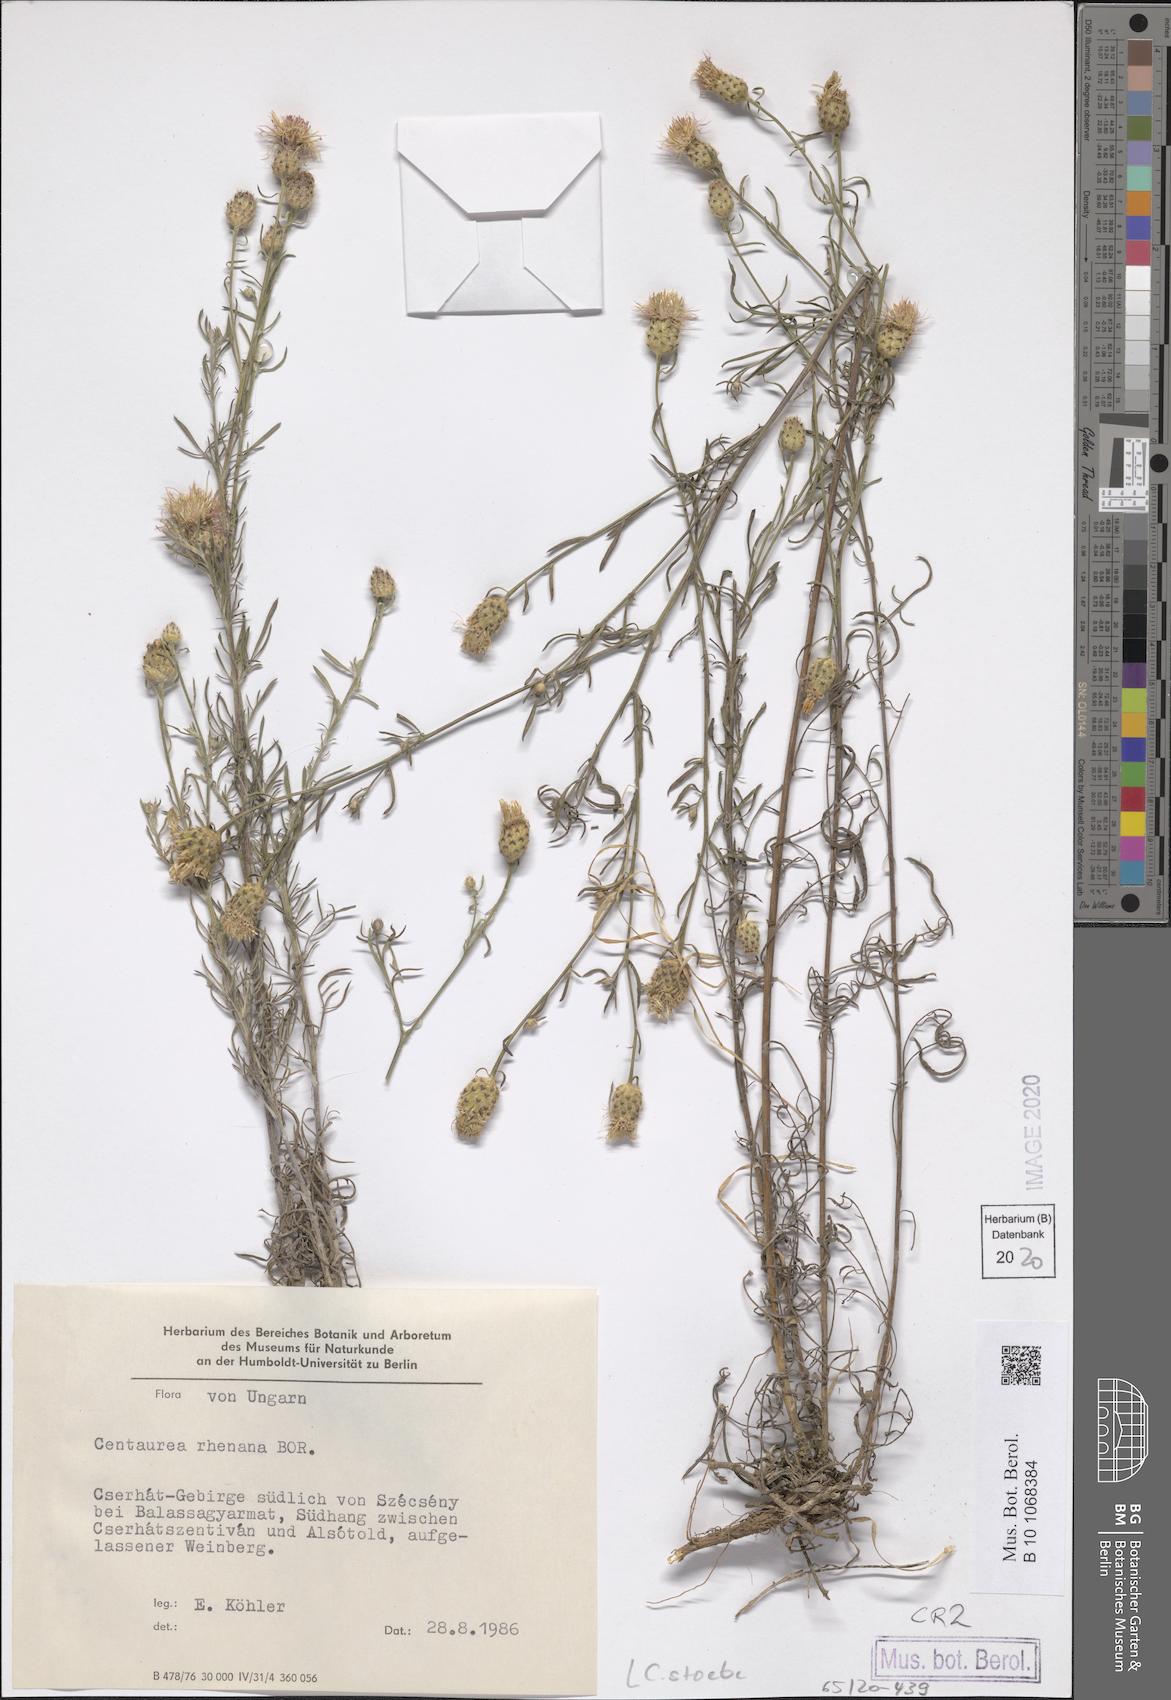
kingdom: Plantae
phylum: Tracheophyta
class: Magnoliopsida
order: Asterales
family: Asteraceae
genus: Centaurea
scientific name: Centaurea stoebe
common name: Spotted knapweed
